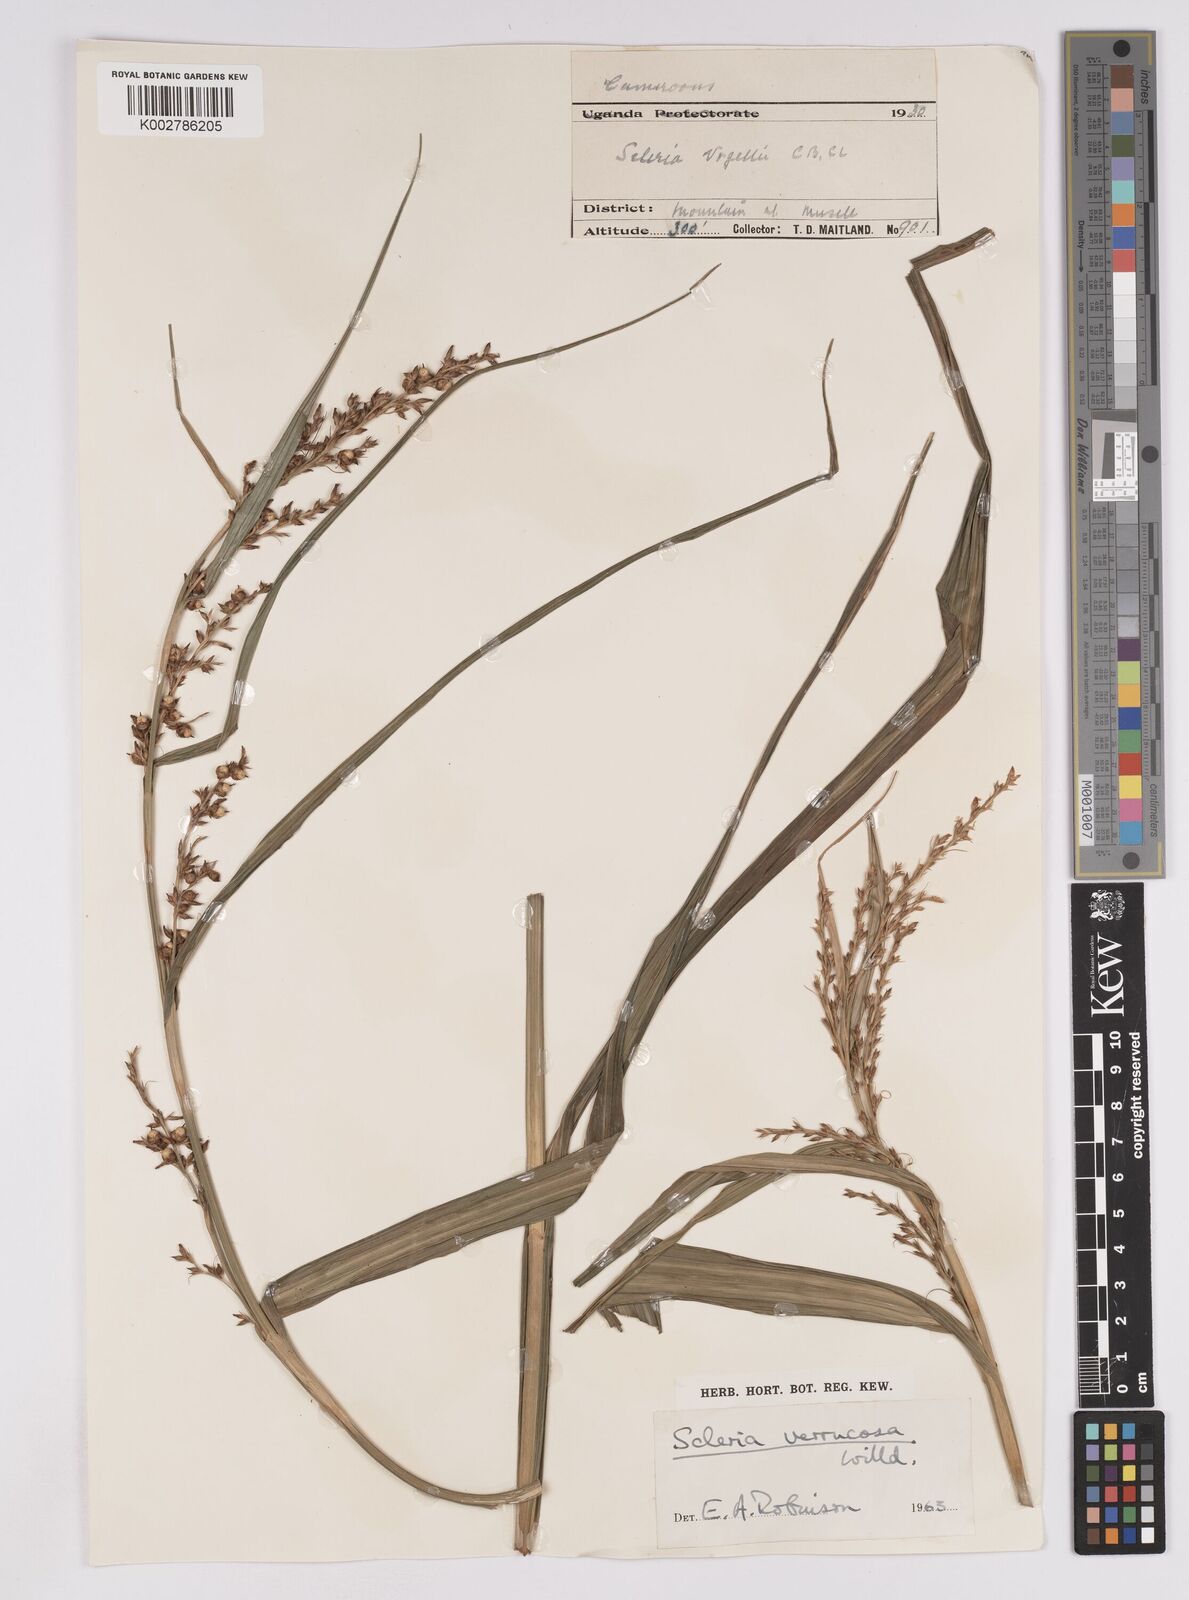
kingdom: Plantae
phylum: Tracheophyta
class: Liliopsida
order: Poales
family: Cyperaceae
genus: Scleria
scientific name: Scleria verrucosa
